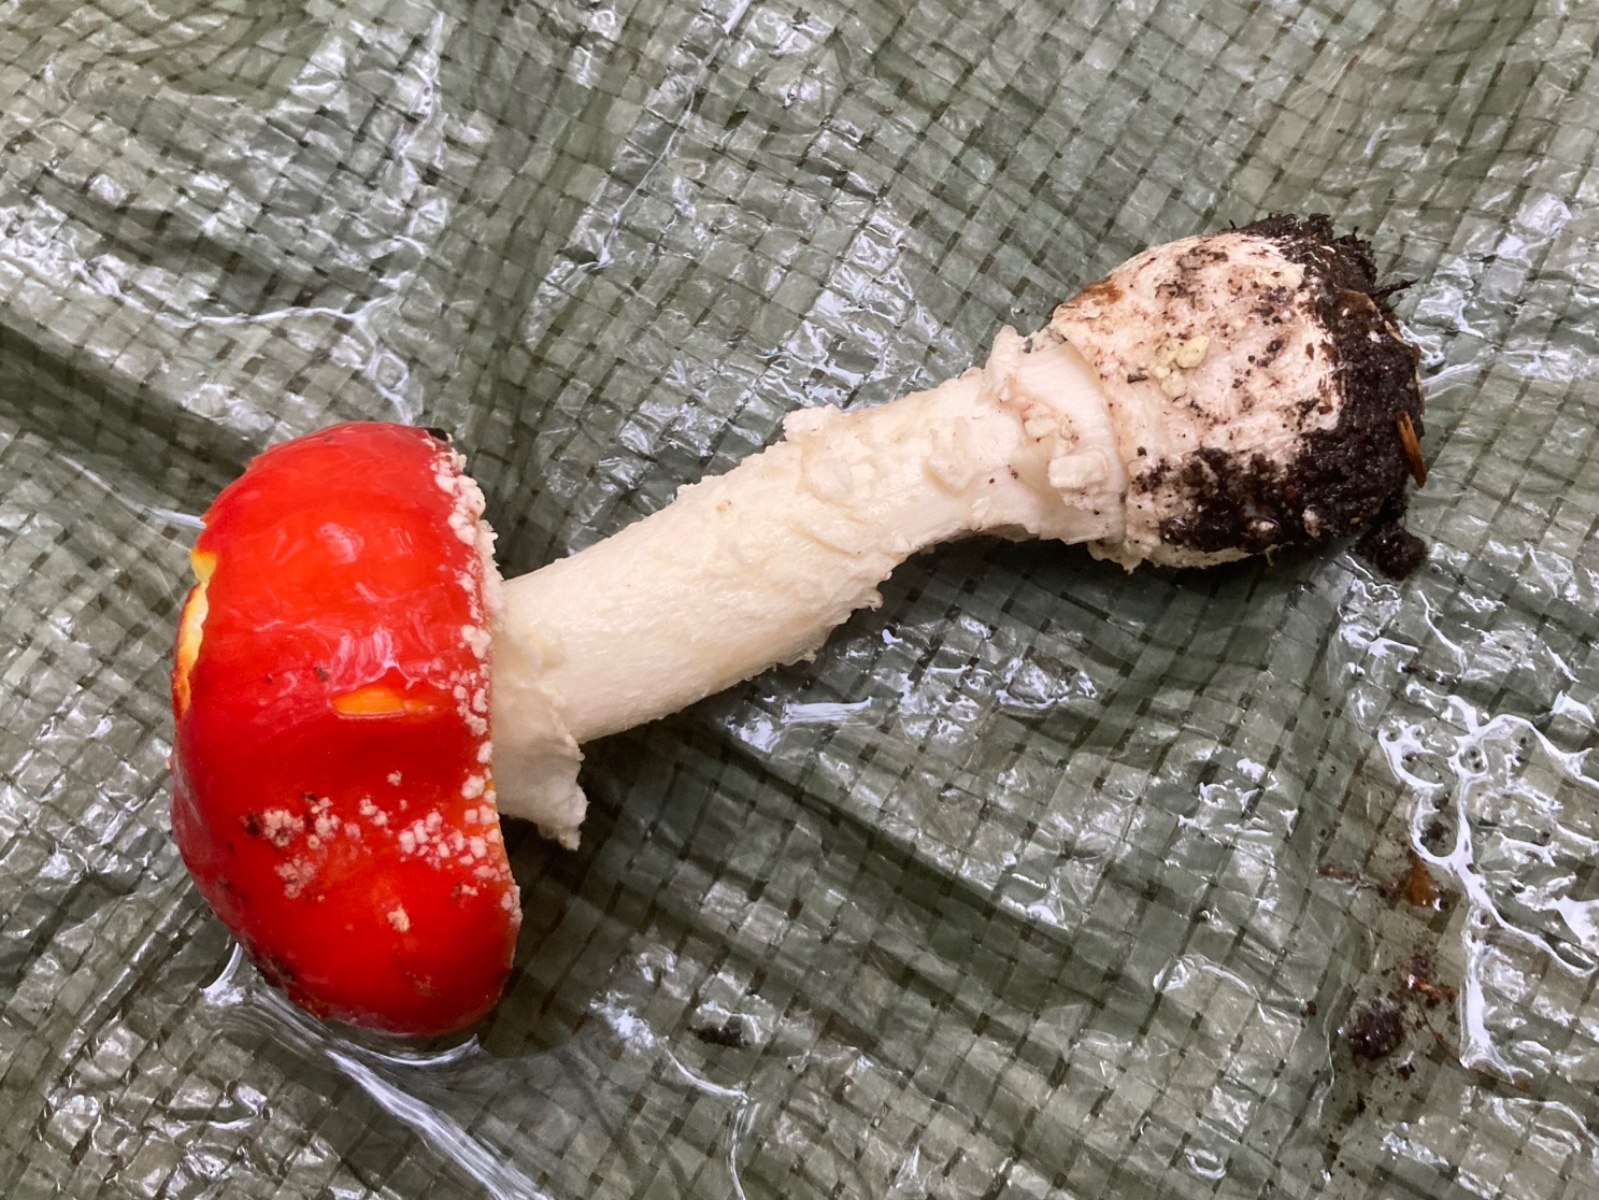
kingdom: Fungi
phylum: Basidiomycota
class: Agaricomycetes
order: Agaricales
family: Amanitaceae
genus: Amanita
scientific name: Amanita muscaria
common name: rød fluesvamp
